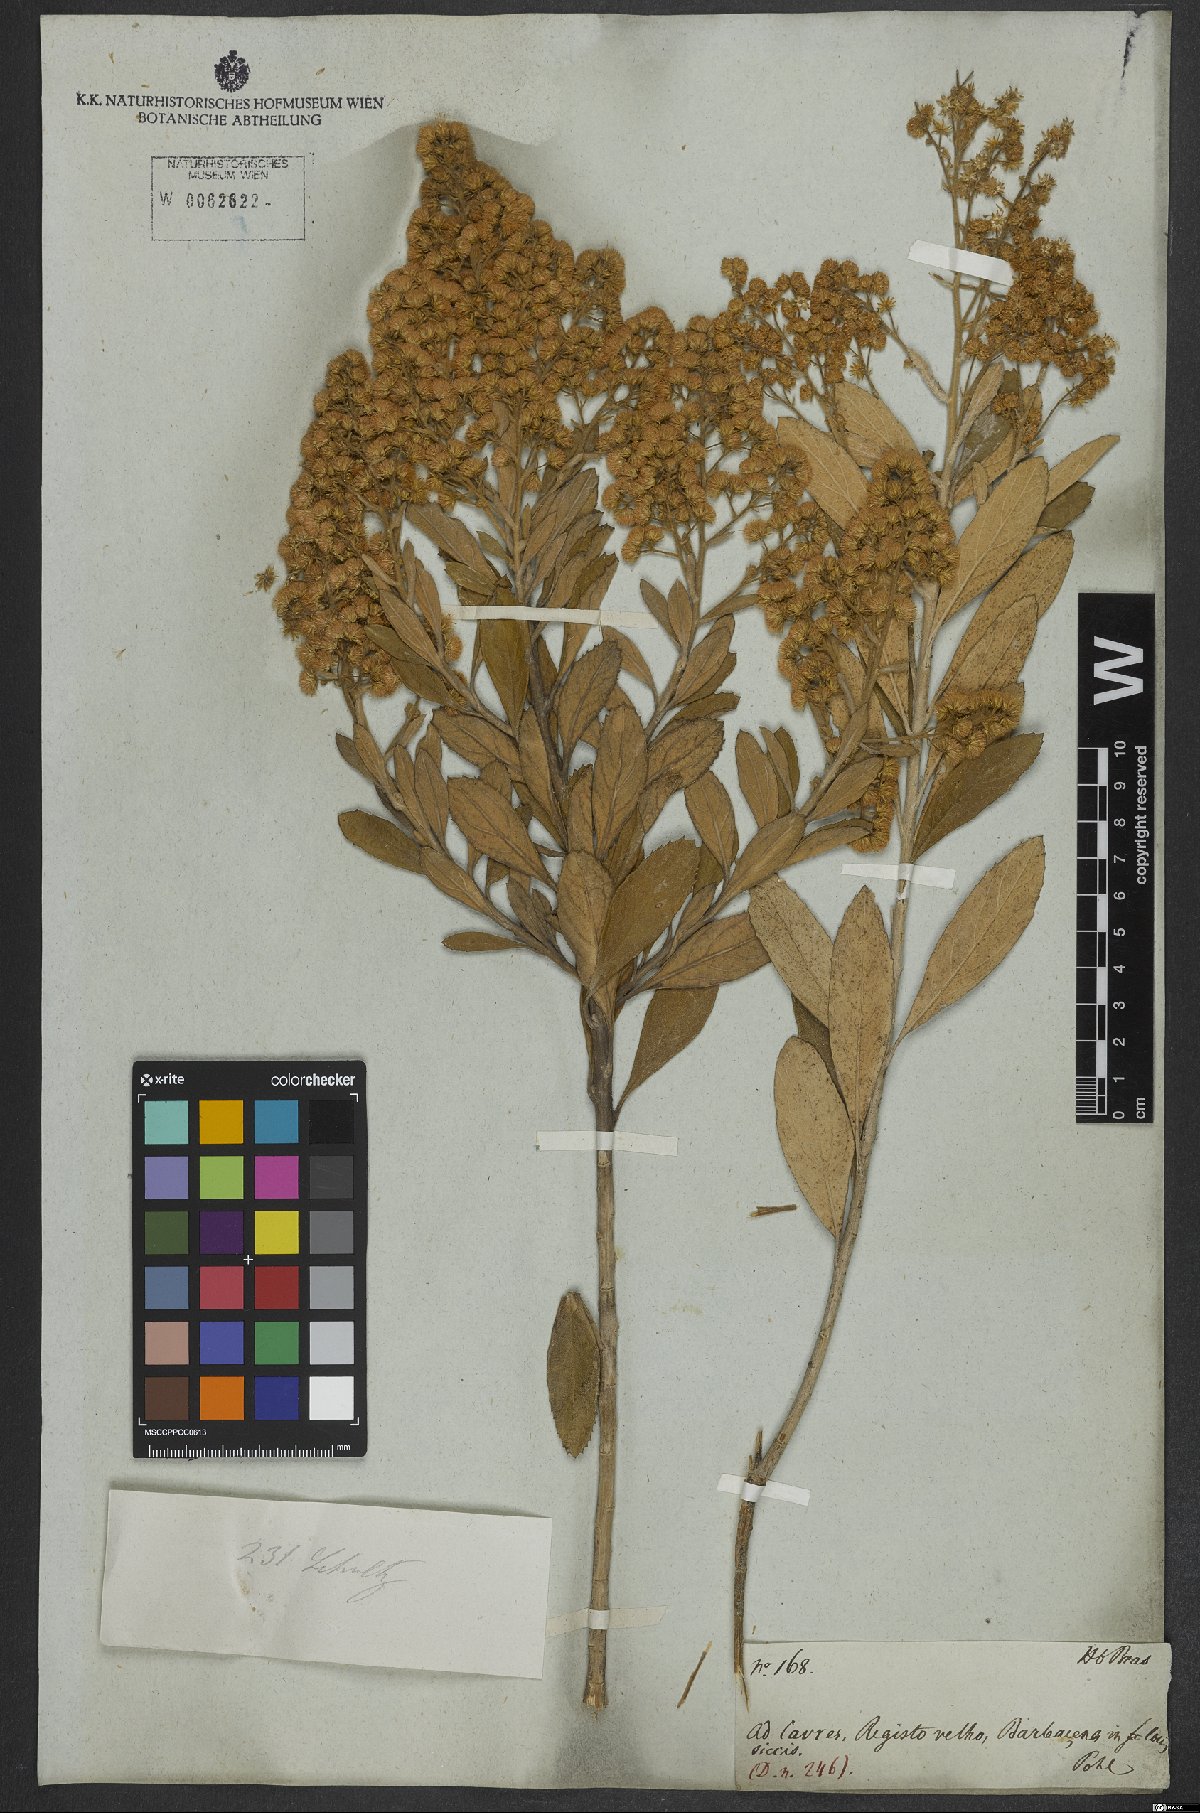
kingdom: Plantae
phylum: Tracheophyta
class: Magnoliopsida
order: Asterales
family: Asteraceae
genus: Baccharis
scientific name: Baccharis tarchonanthoides
